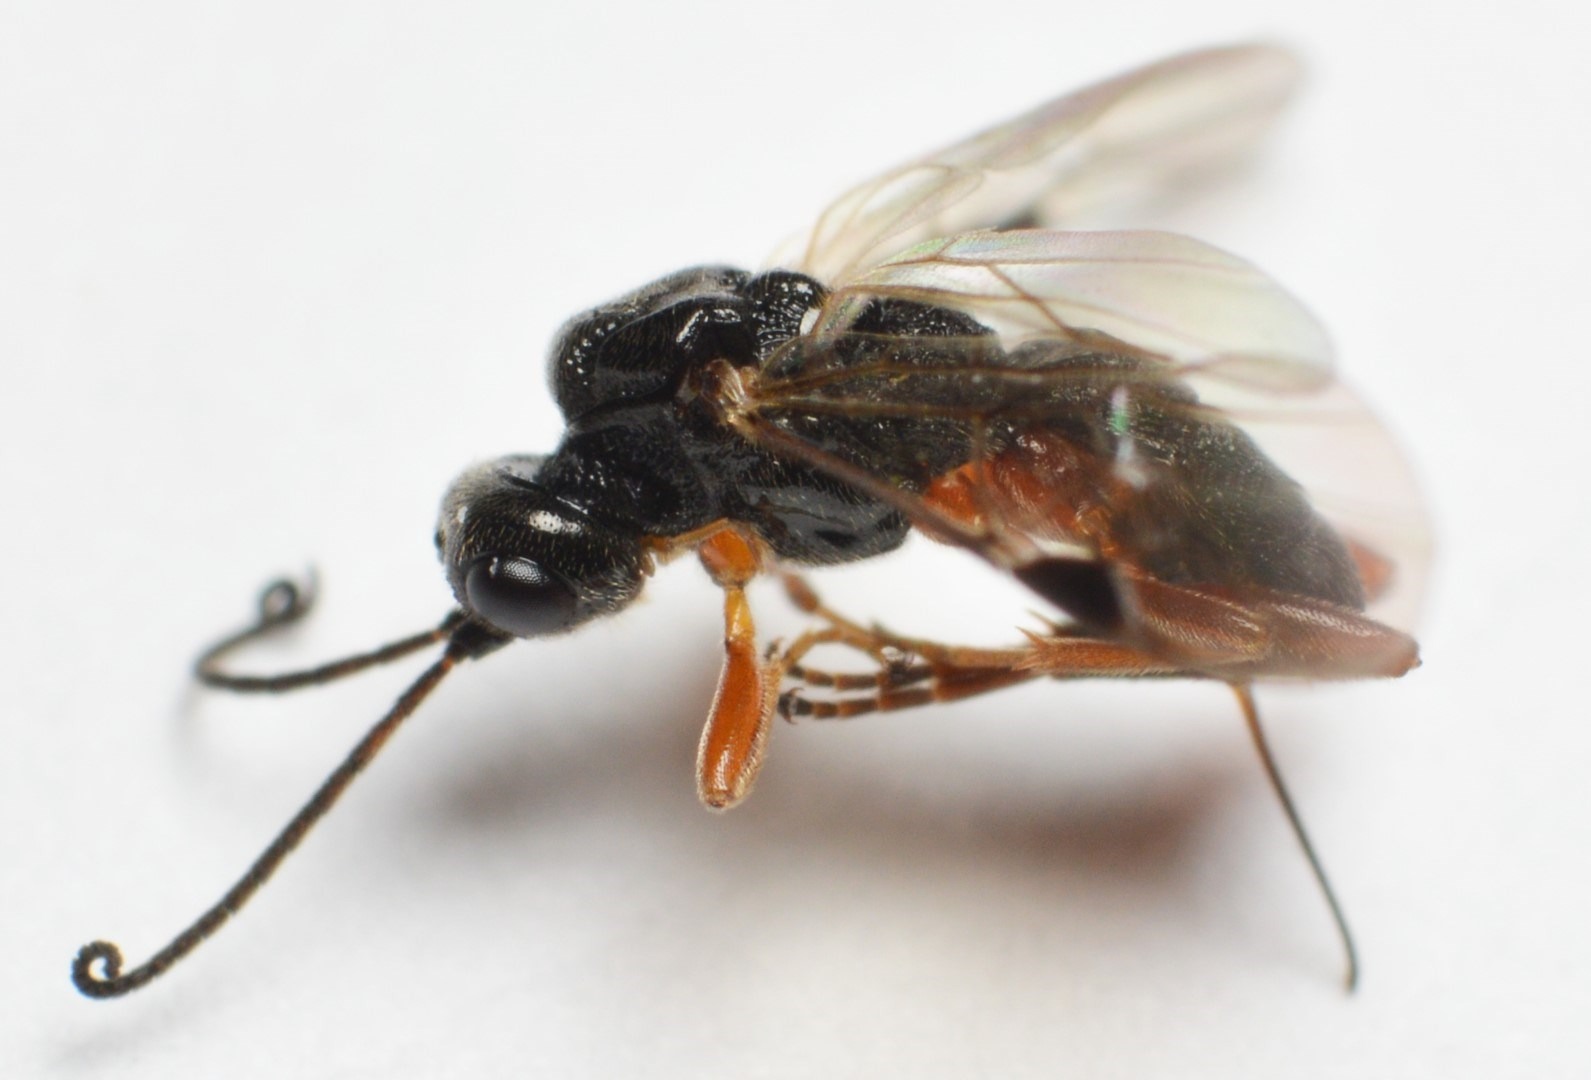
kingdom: Animalia
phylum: Arthropoda
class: Insecta
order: Hymenoptera
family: Braconidae
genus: Eubazus
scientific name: Eubazus nigroventralis
